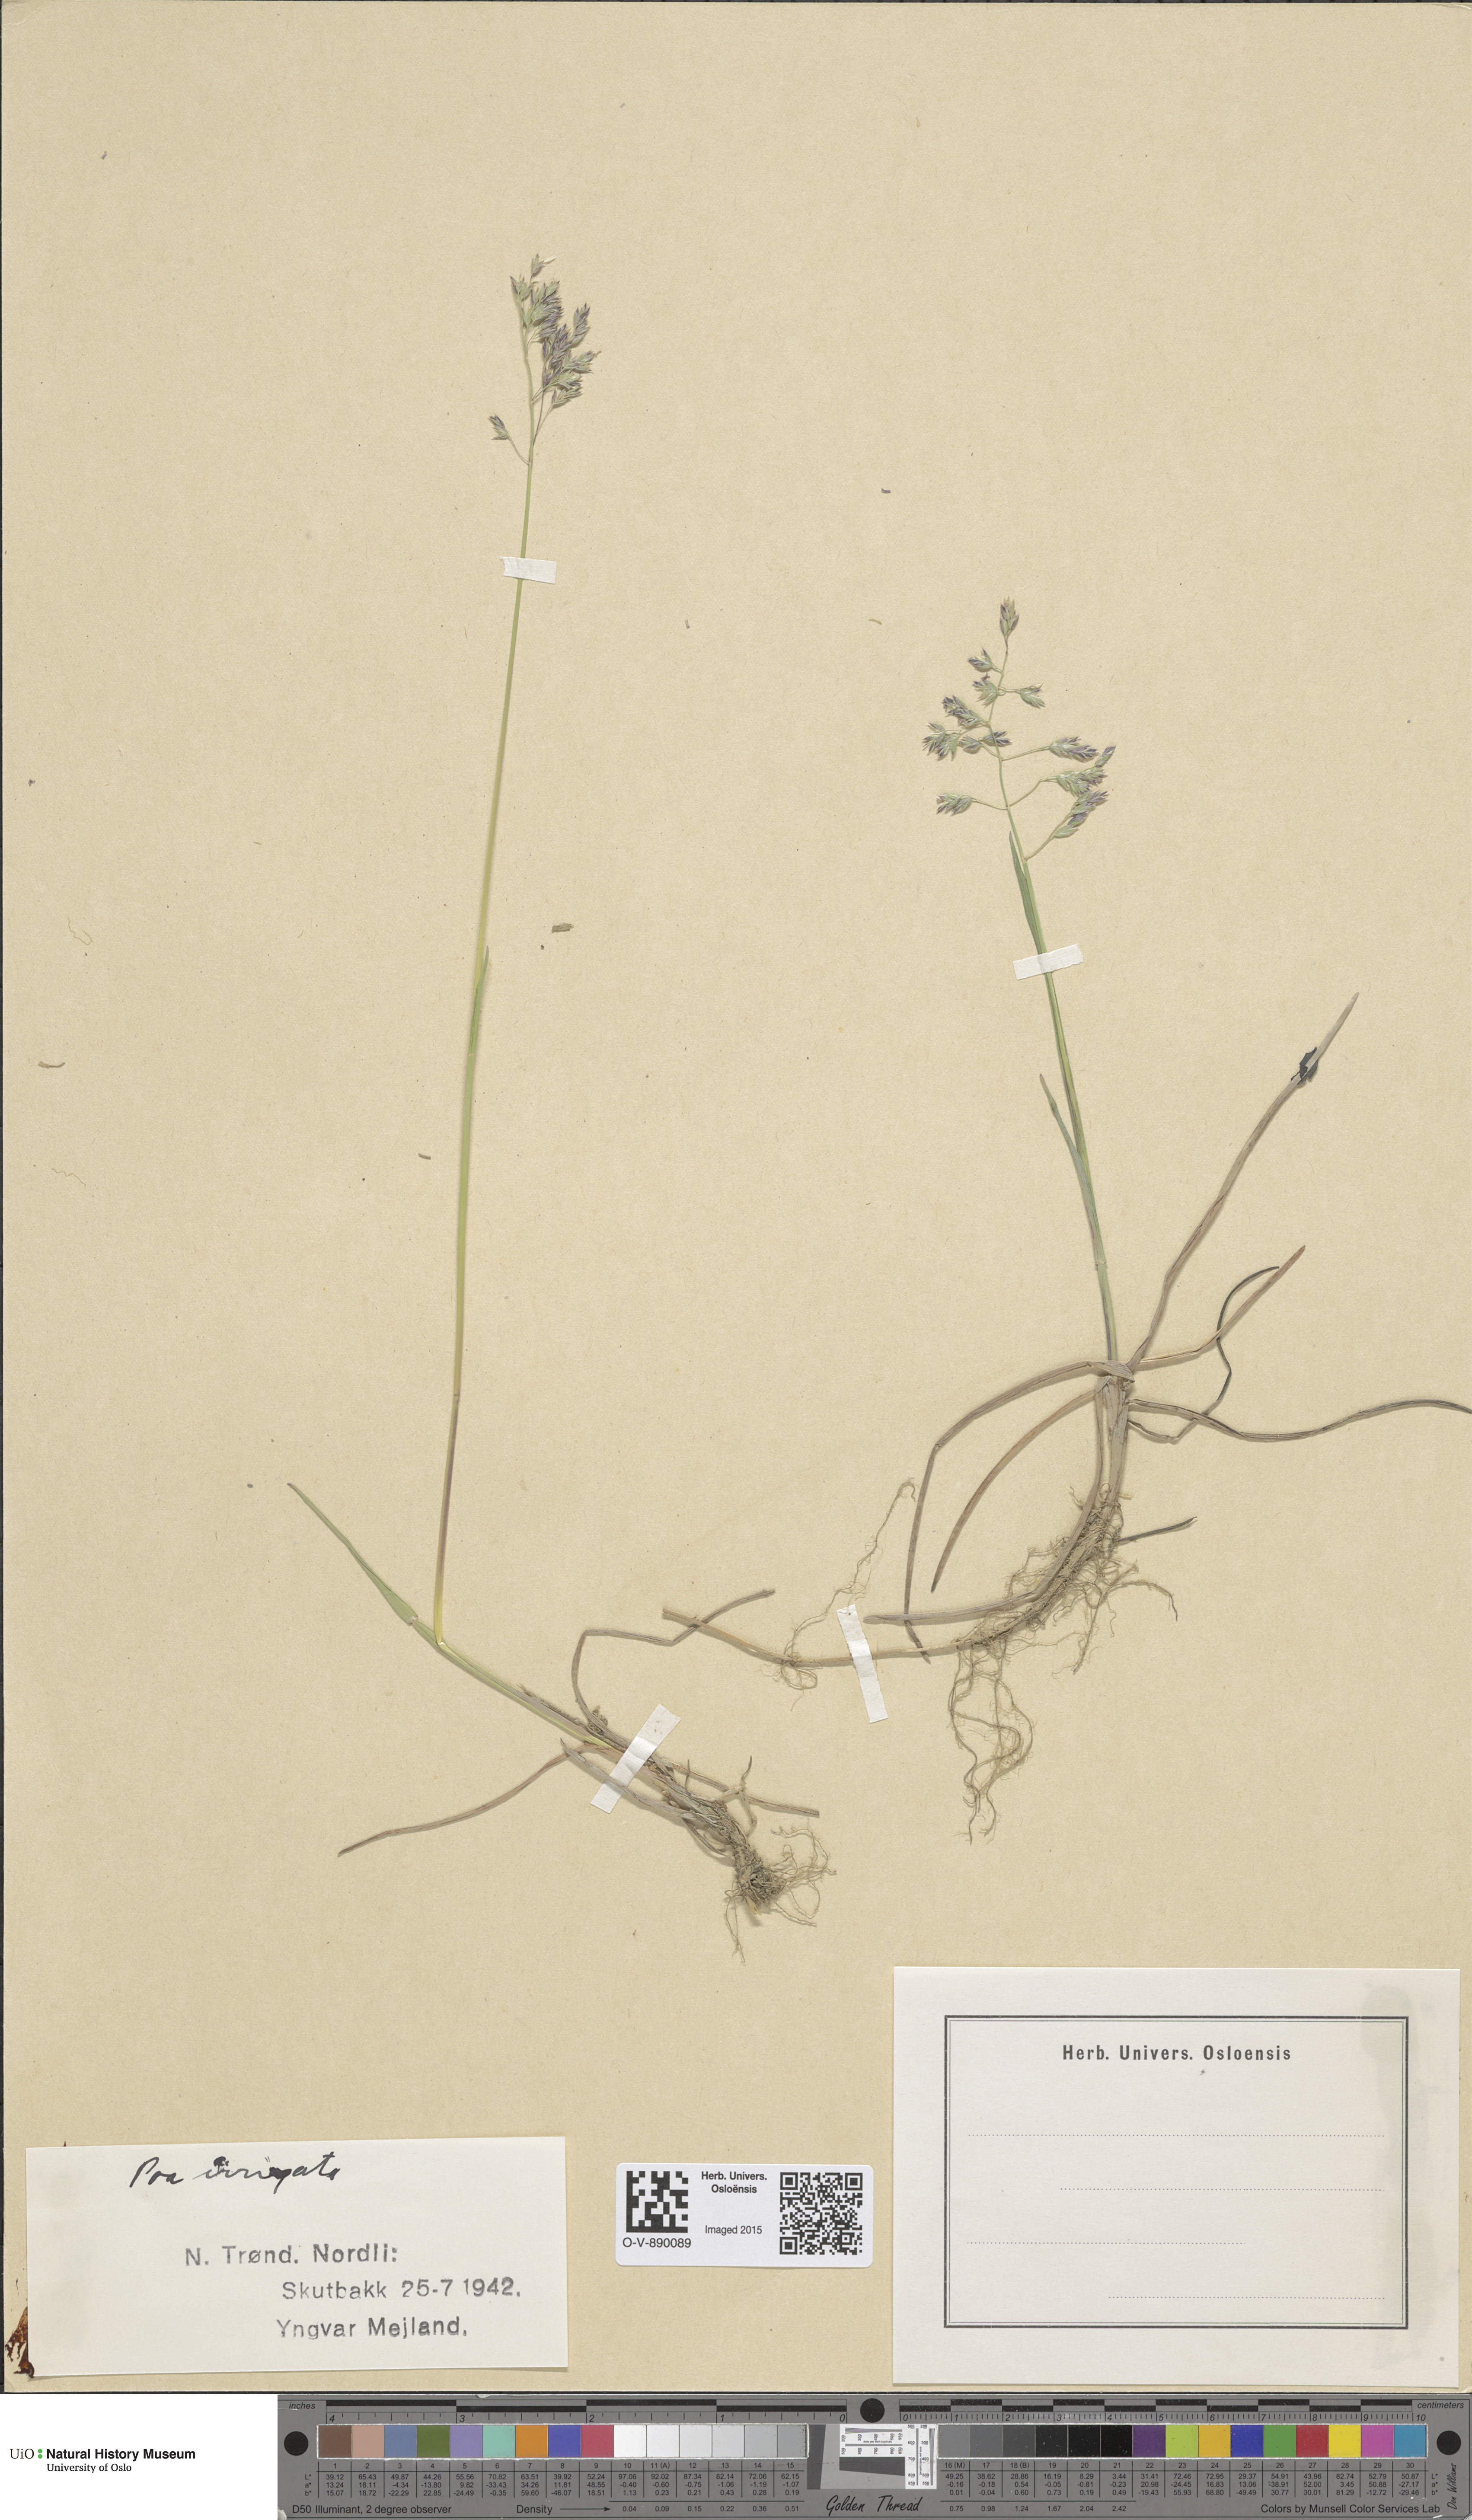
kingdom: Plantae
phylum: Tracheophyta
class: Liliopsida
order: Poales
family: Poaceae
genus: Poa
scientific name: Poa humilis
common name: Spreading meadow-grass
